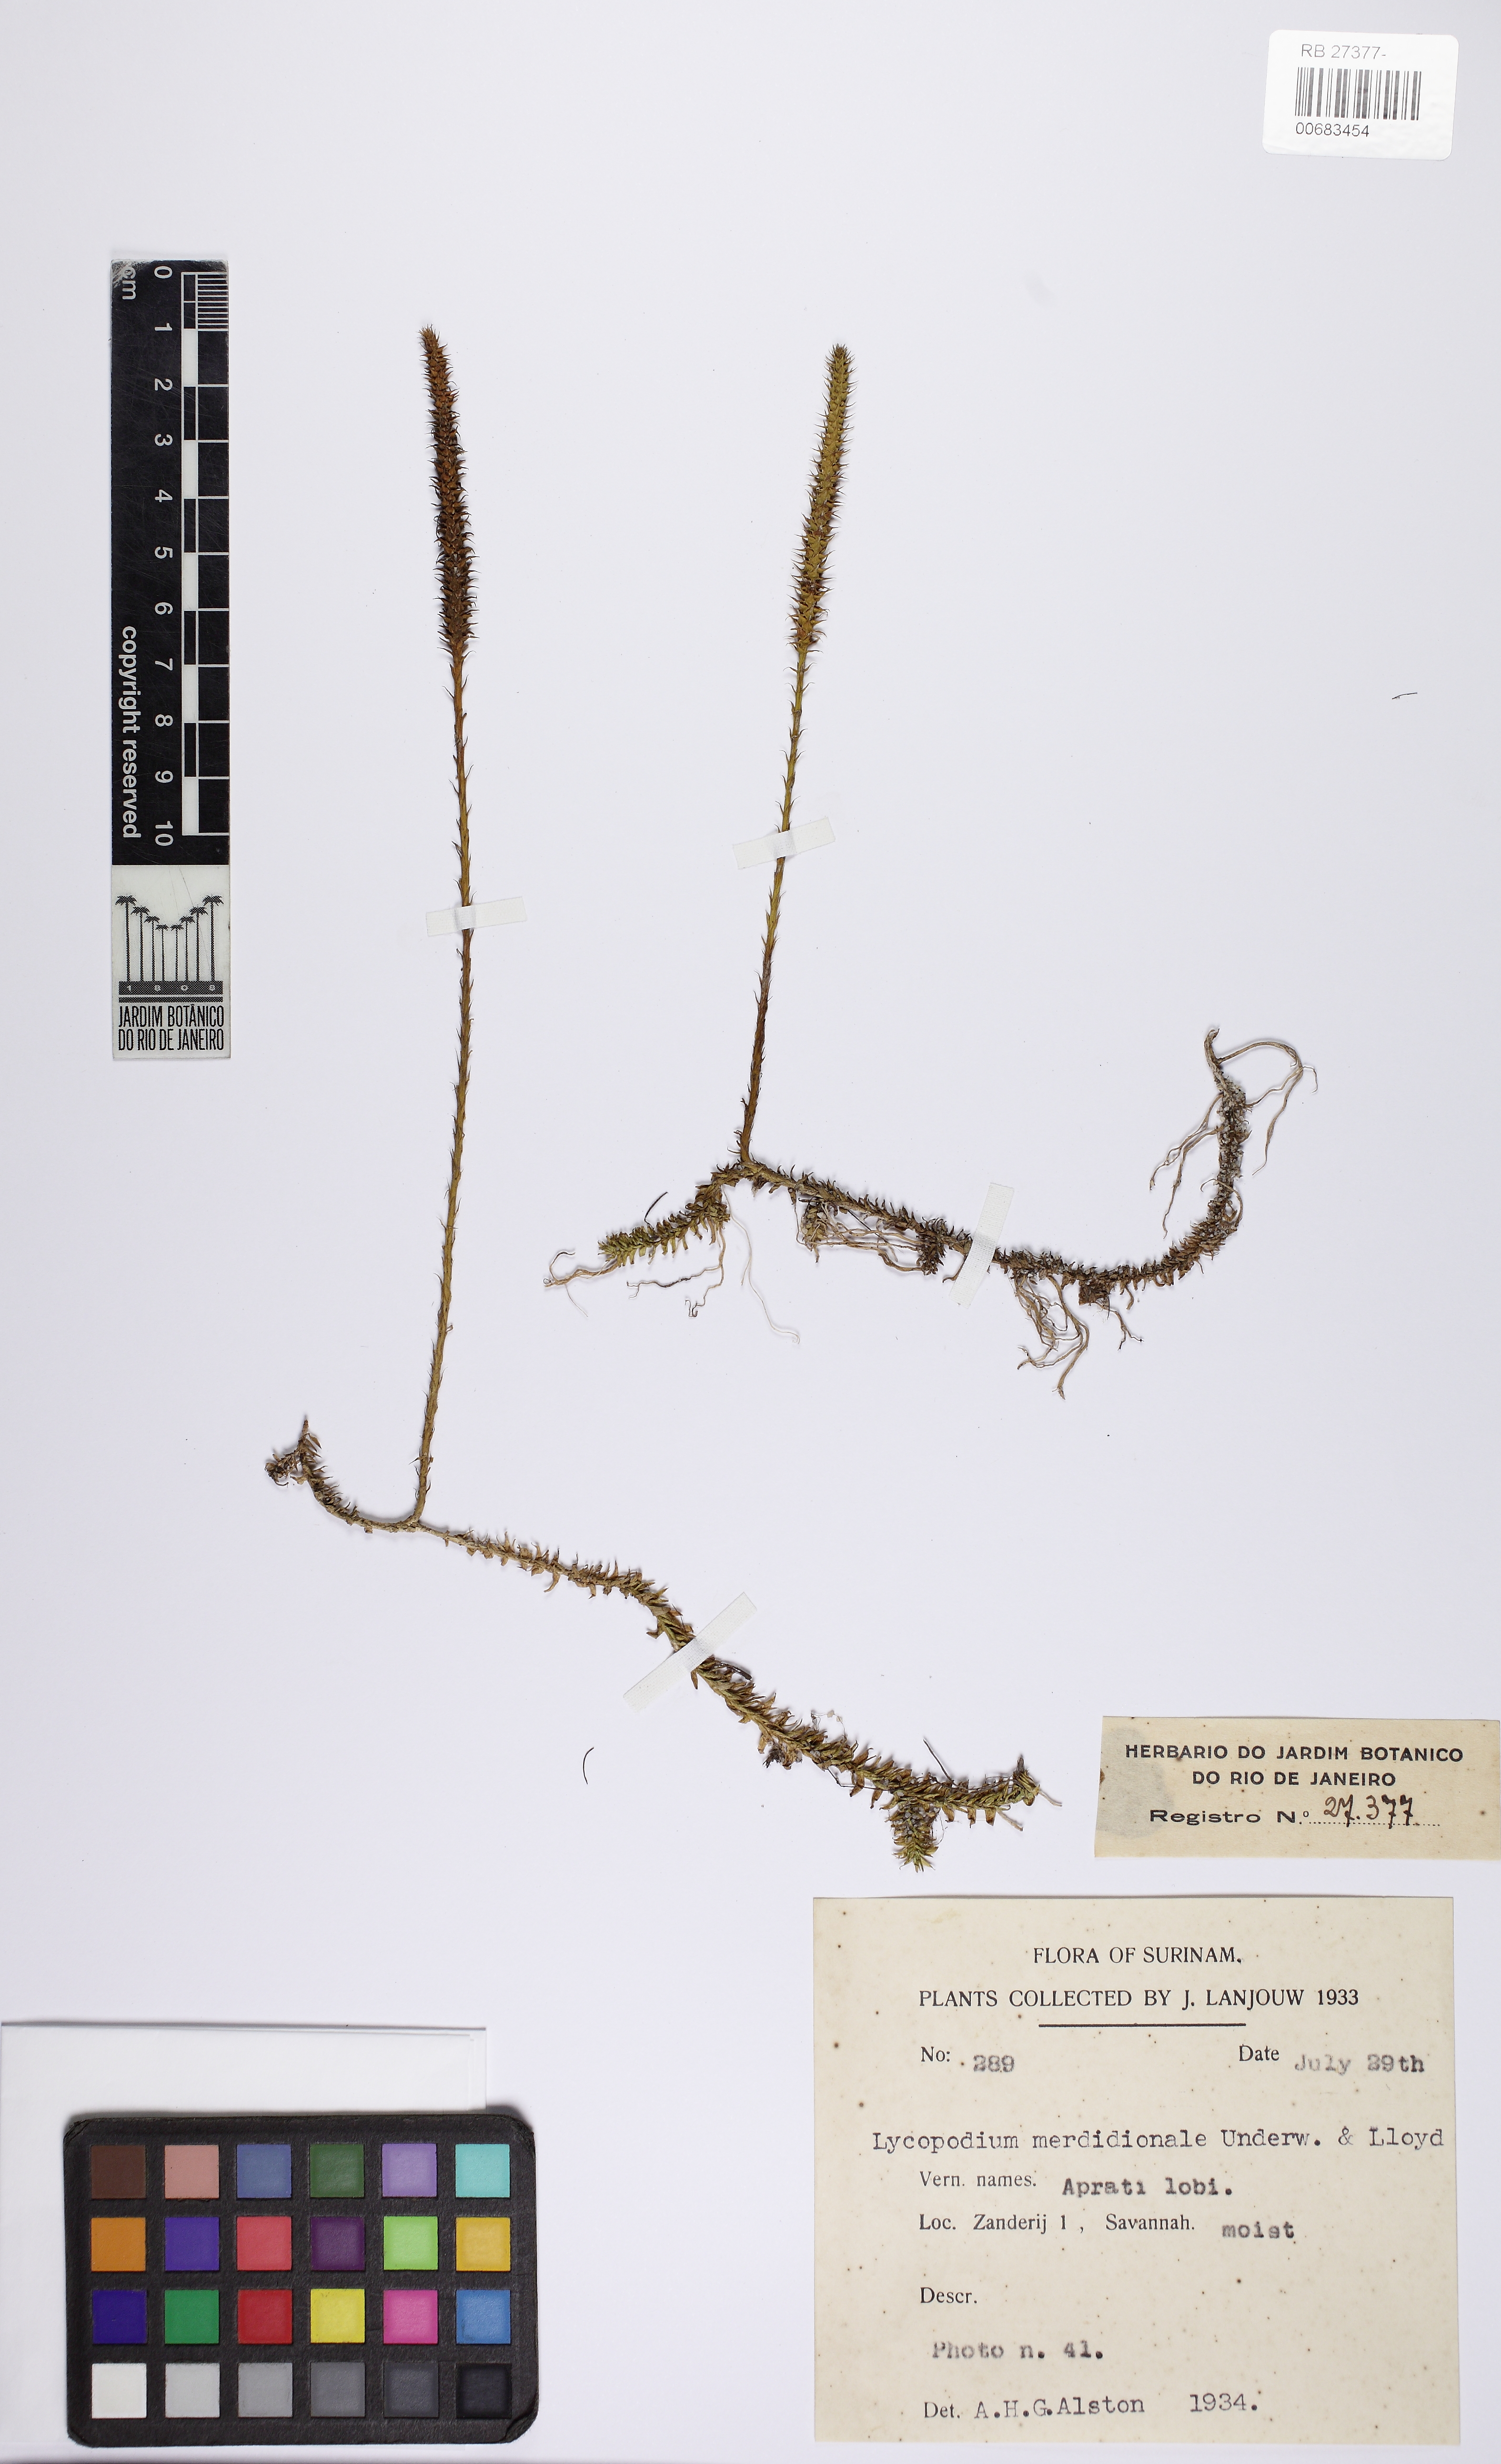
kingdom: Plantae
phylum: Tracheophyta
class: Lycopodiopsida
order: Lycopodiales
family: Lycopodiaceae
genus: Pseudolycopodiella
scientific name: Pseudolycopodiella meridionalis
